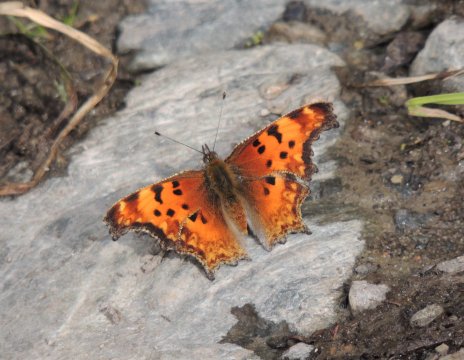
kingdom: Animalia
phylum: Arthropoda
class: Insecta
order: Lepidoptera
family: Nymphalidae
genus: Polygonia
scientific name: Polygonia gracilis
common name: Hoary Comma
